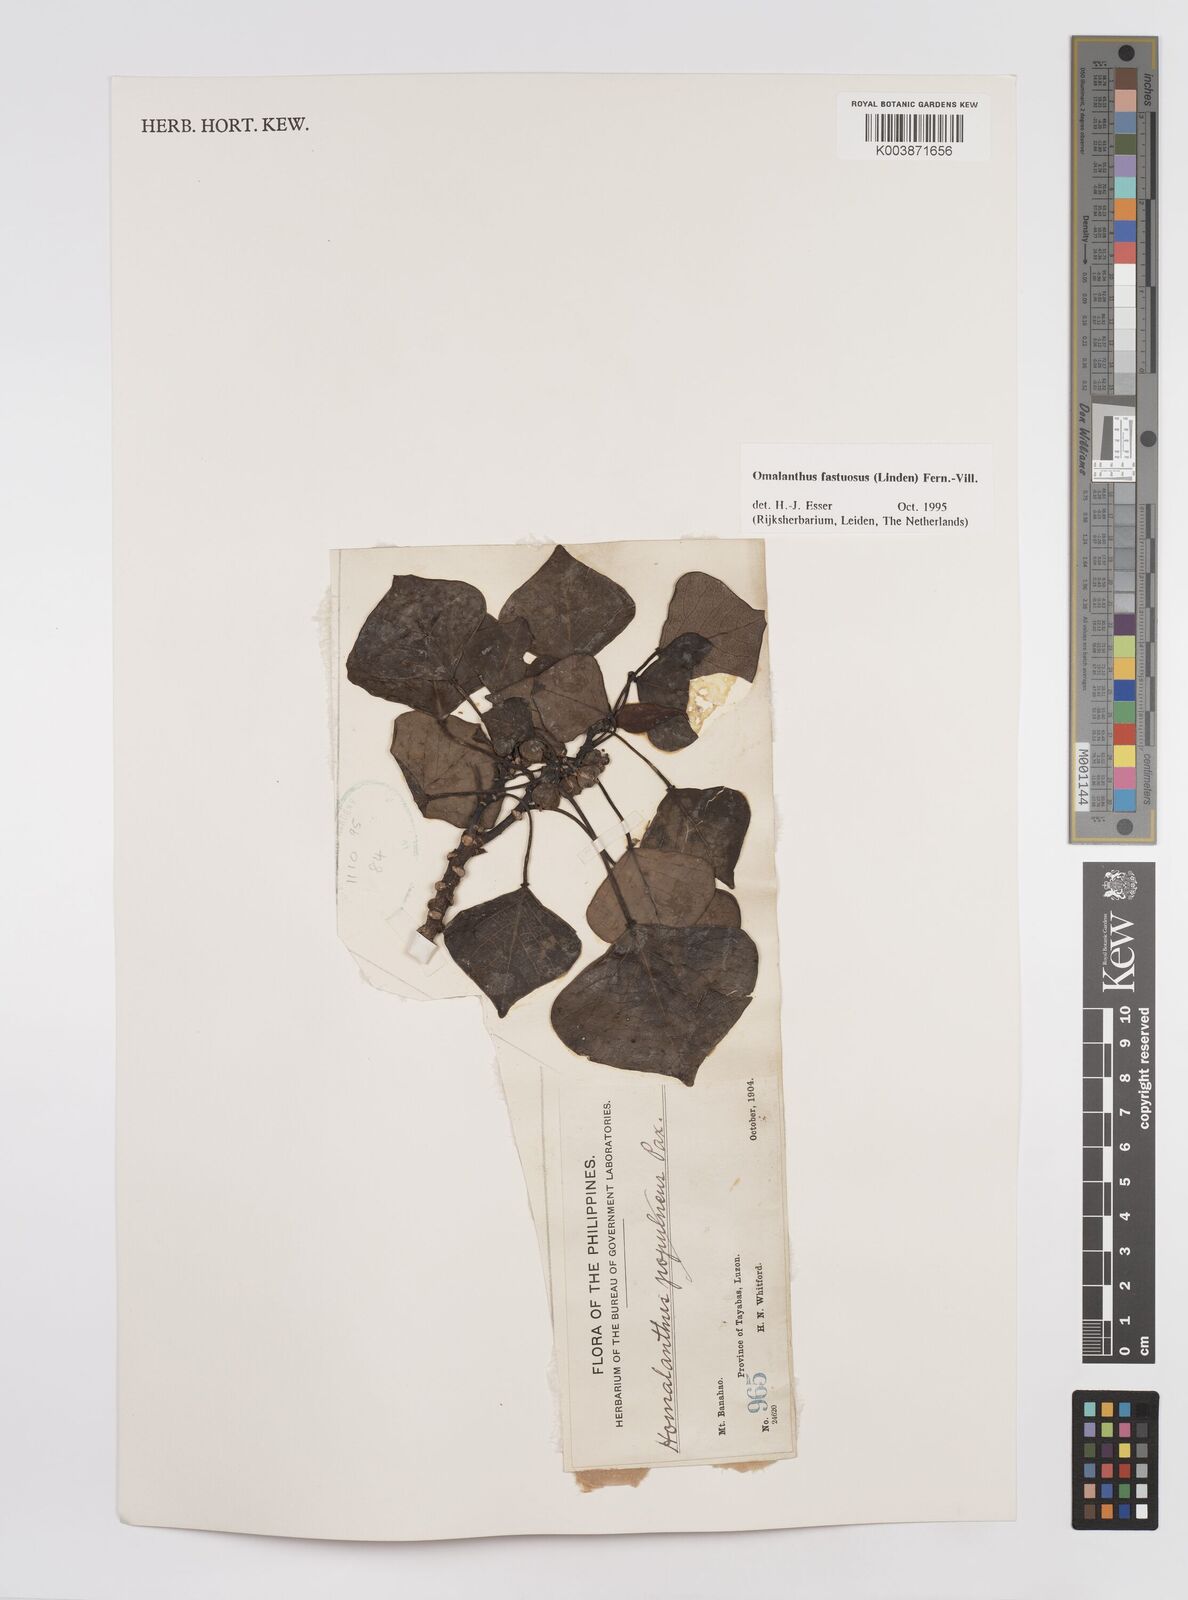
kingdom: Plantae
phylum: Tracheophyta
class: Magnoliopsida
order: Malpighiales
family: Euphorbiaceae
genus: Homalanthus
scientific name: Homalanthus fastuosus
